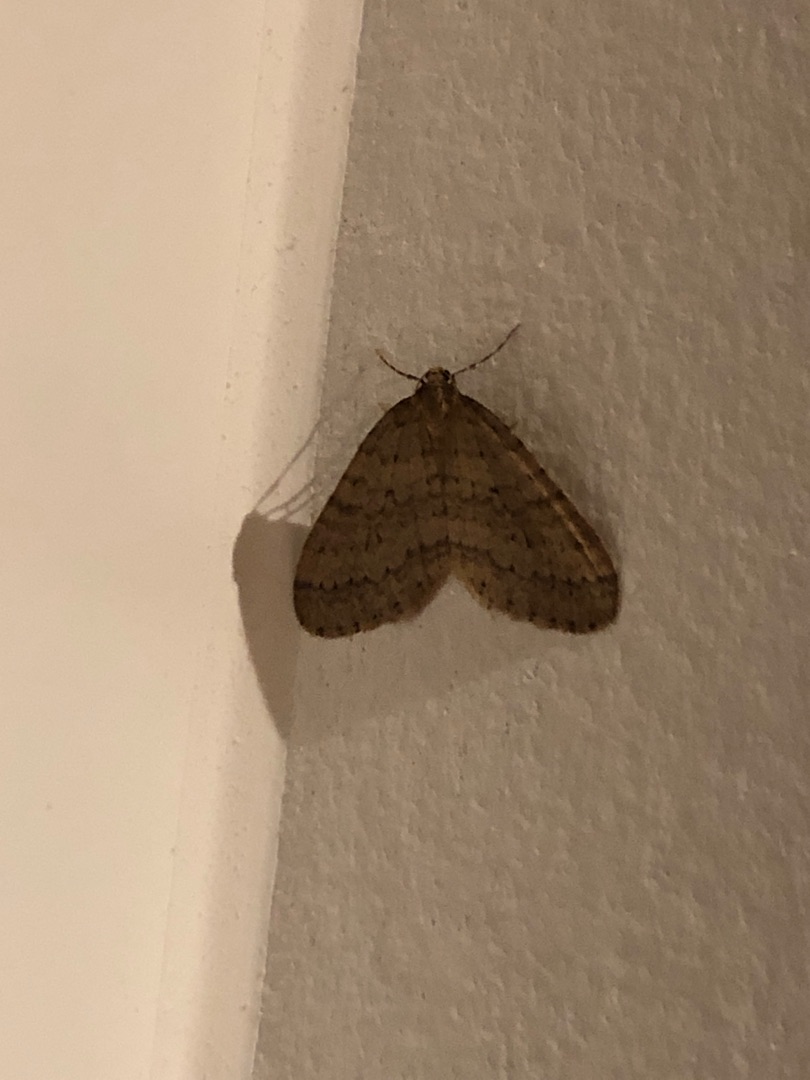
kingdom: Animalia
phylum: Arthropoda
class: Insecta
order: Lepidoptera
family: Geometridae
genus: Operophtera
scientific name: Operophtera brumata
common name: Lille frostmåler
